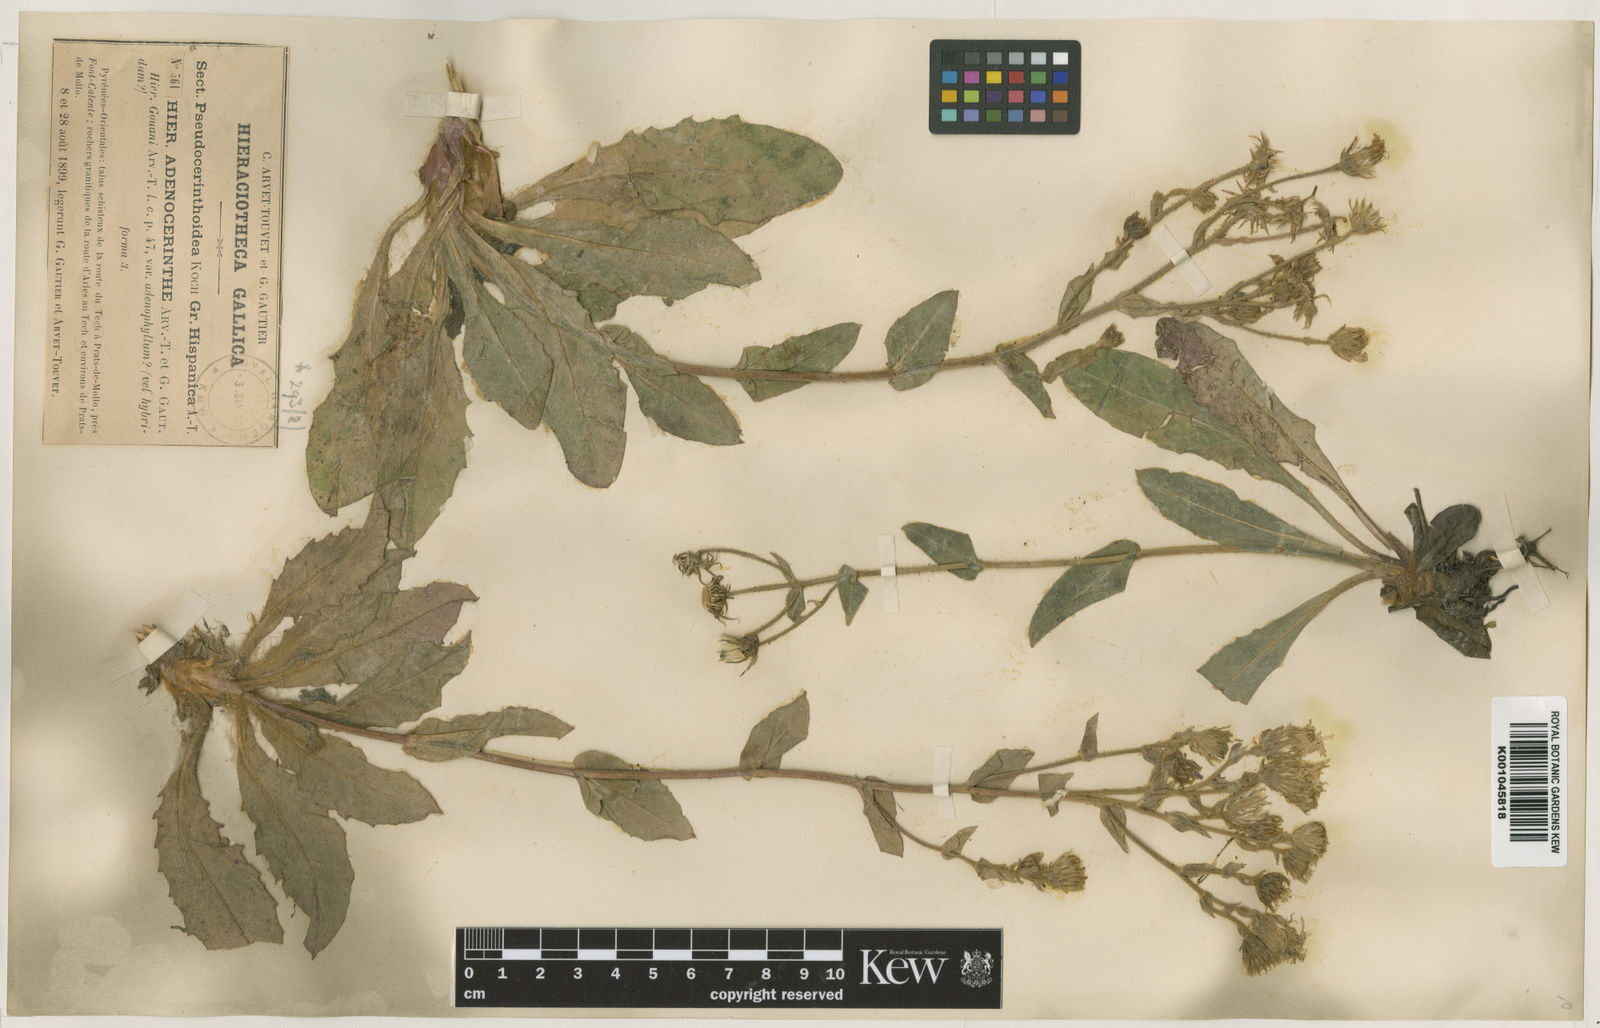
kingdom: Plantae
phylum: Tracheophyta
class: Magnoliopsida
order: Asterales
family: Asteraceae
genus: Hieracium
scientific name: Hieracium
